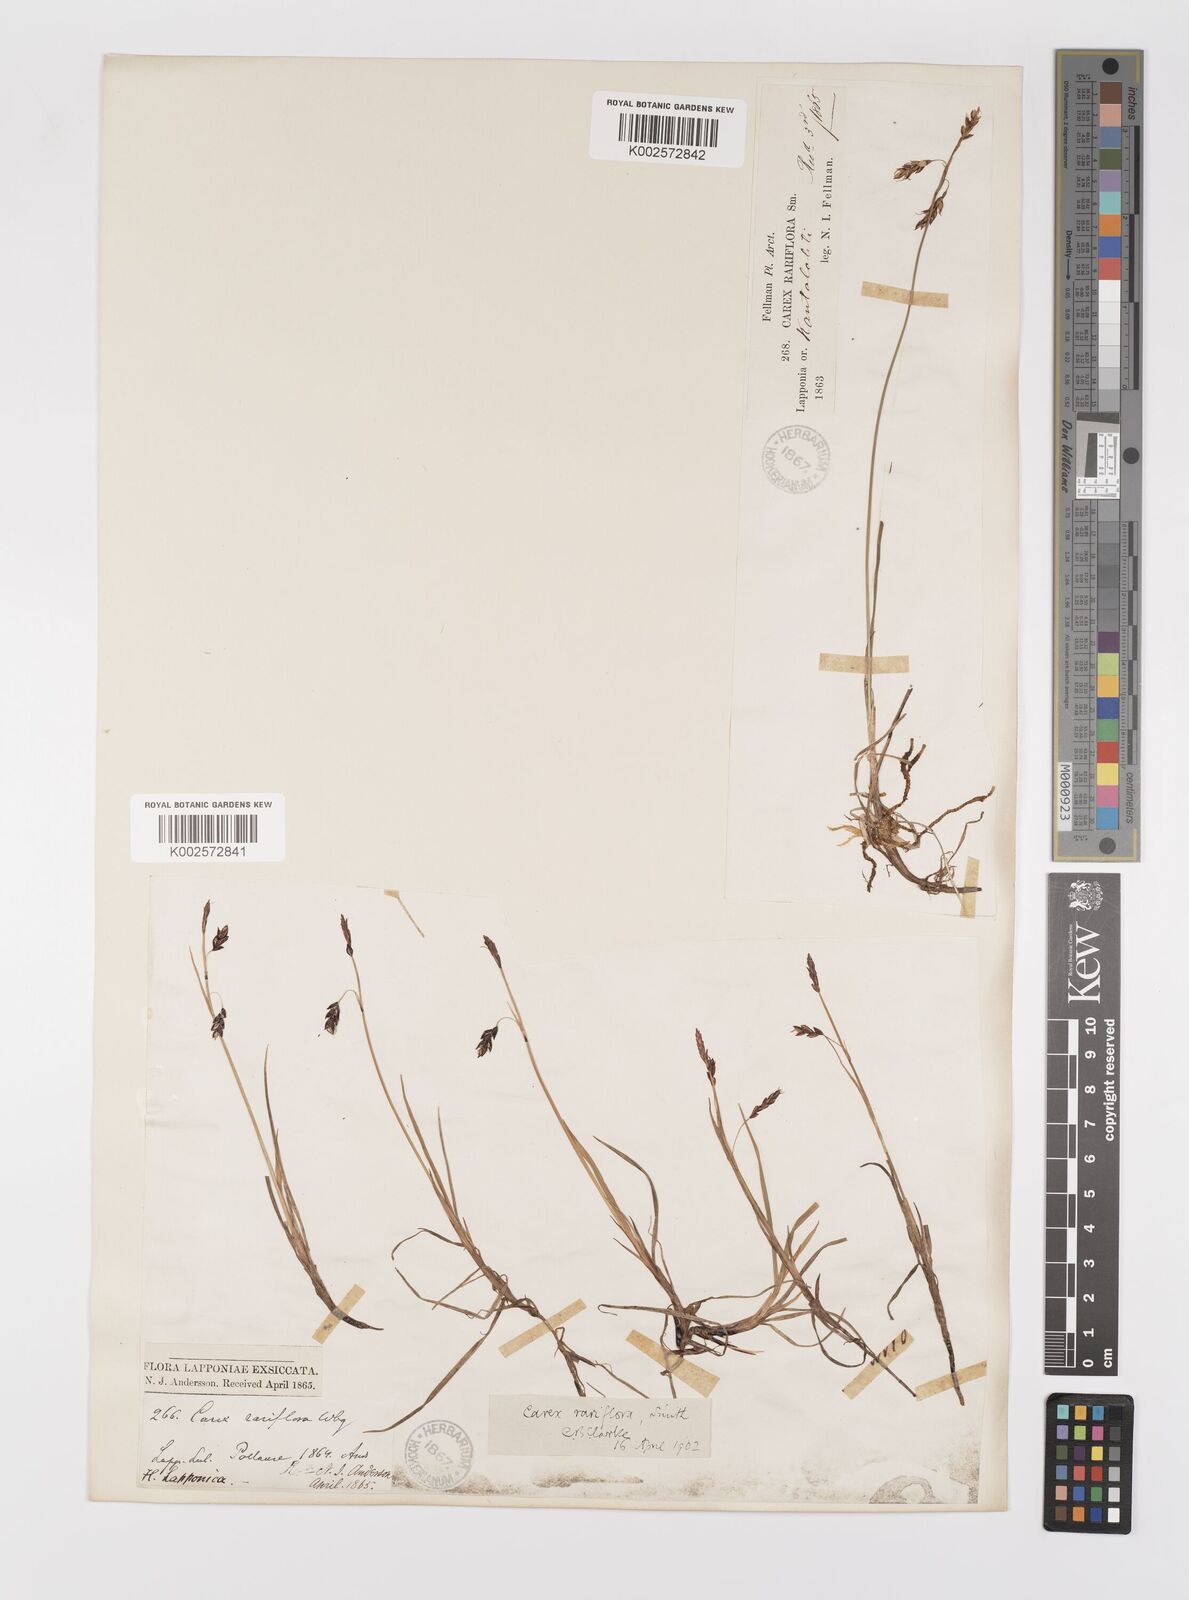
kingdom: Plantae
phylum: Tracheophyta
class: Liliopsida
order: Poales
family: Cyperaceae
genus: Carex
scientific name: Carex rariflora
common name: Loose-flowered alpine sedge
